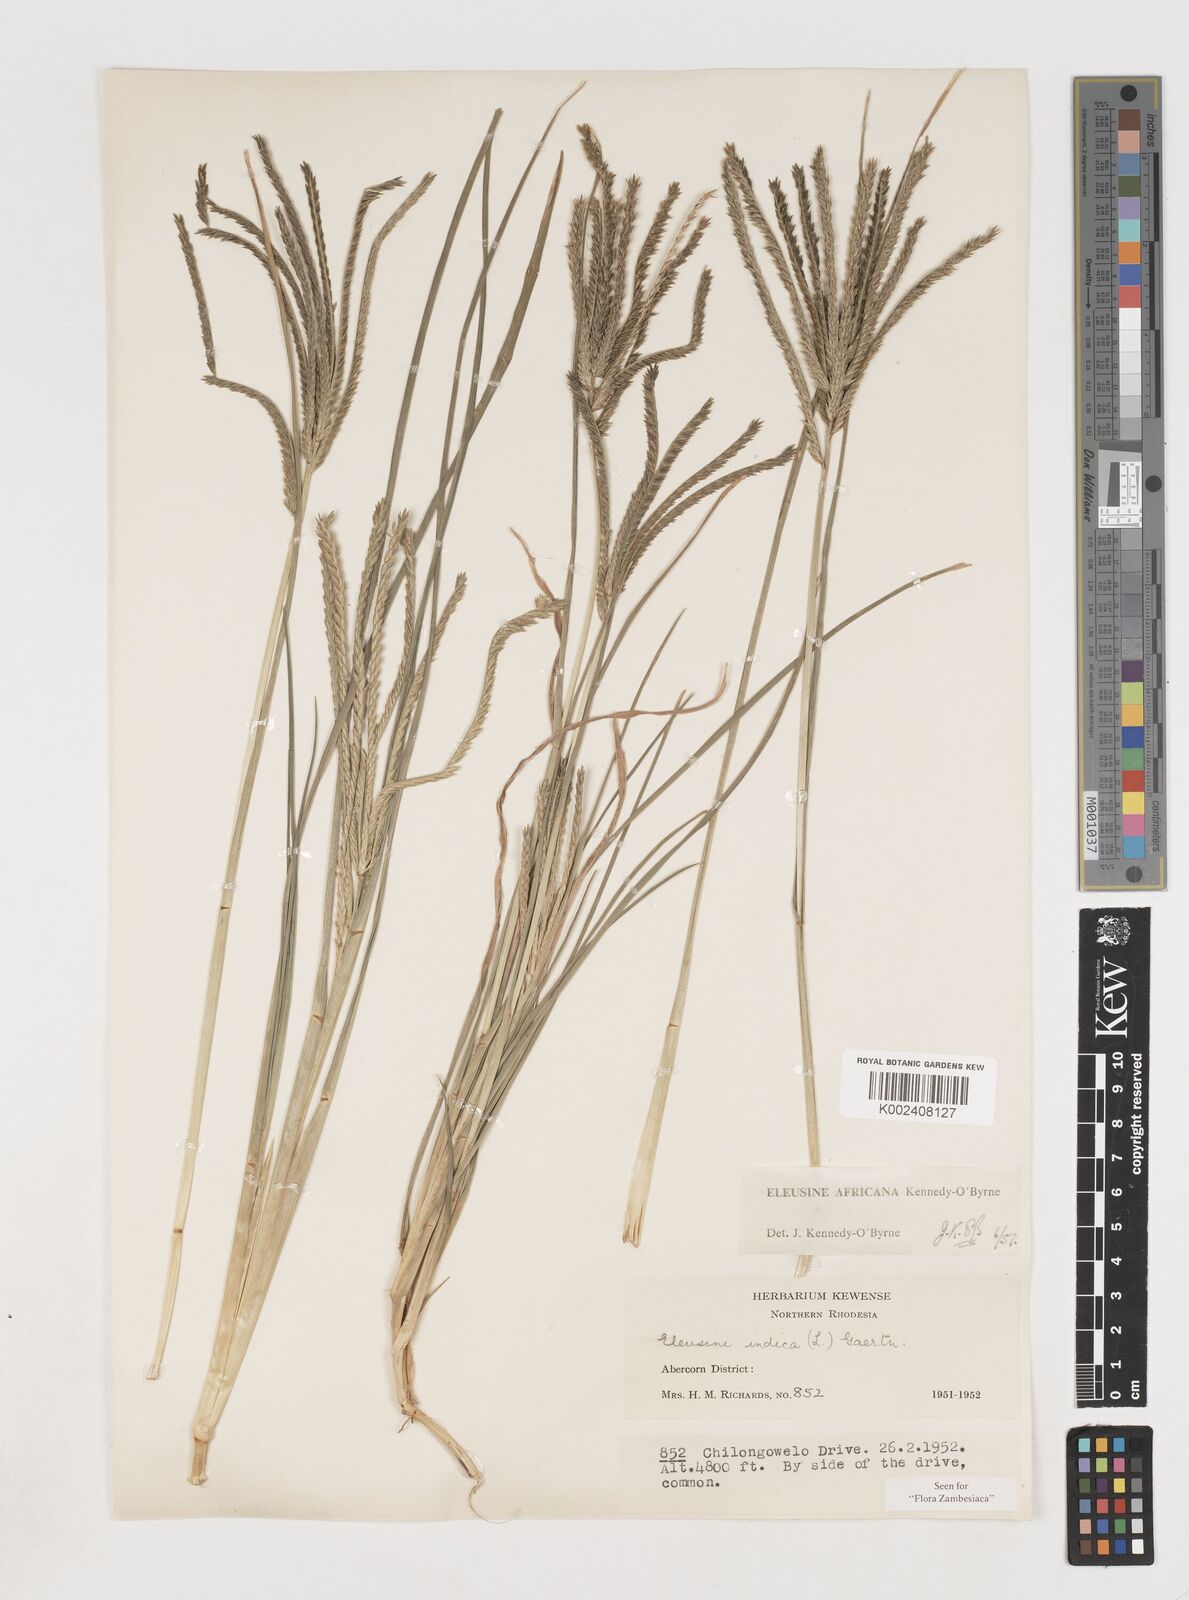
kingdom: Plantae
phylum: Tracheophyta
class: Liliopsida
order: Poales
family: Poaceae
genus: Eleusine
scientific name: Eleusine africana
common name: Wild african finger millet
